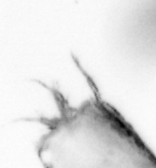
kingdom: Animalia
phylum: Arthropoda
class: Copepoda
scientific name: Copepoda
